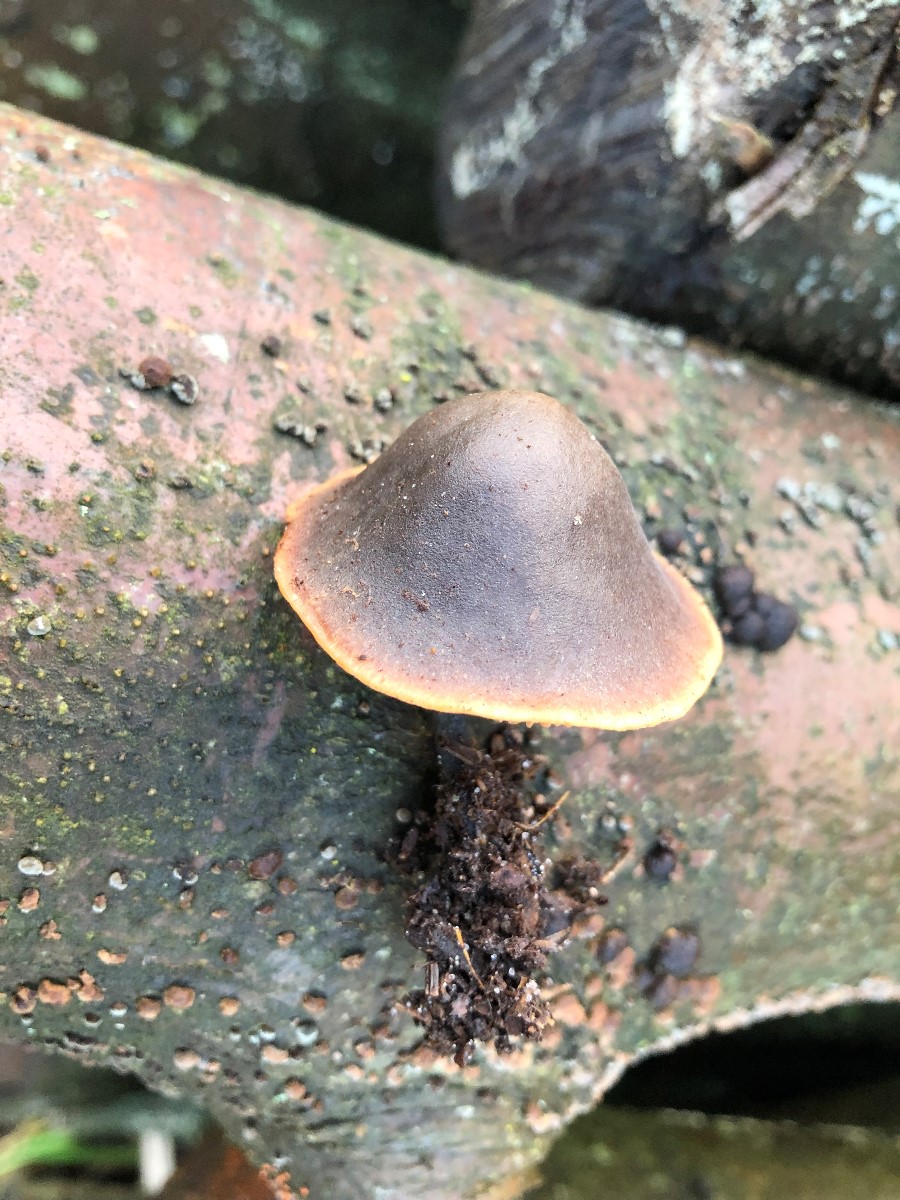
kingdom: Fungi
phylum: Basidiomycota
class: Agaricomycetes
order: Agaricales
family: Macrocystidiaceae
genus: Macrocystidia
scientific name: Macrocystidia cucumis
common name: agurkehat
